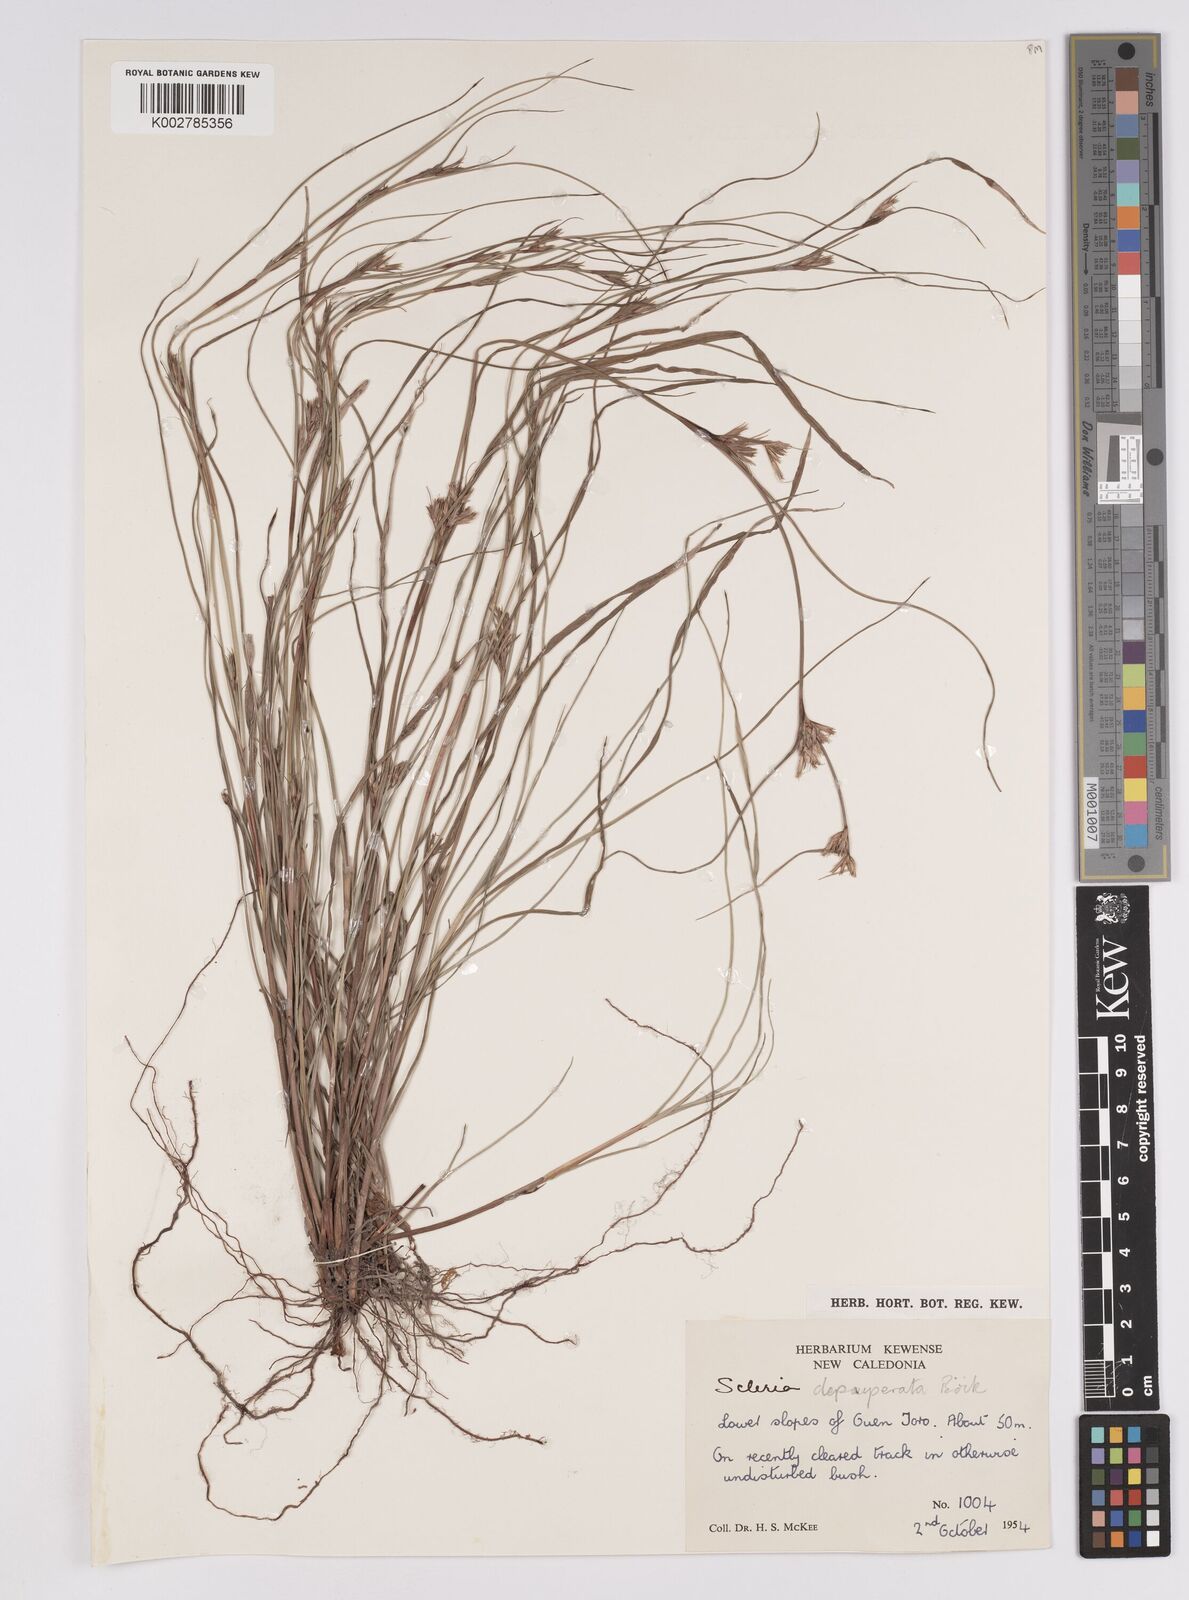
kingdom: Plantae
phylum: Tracheophyta
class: Liliopsida
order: Poales
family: Cyperaceae
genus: Scleria
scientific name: Scleria depauperata
